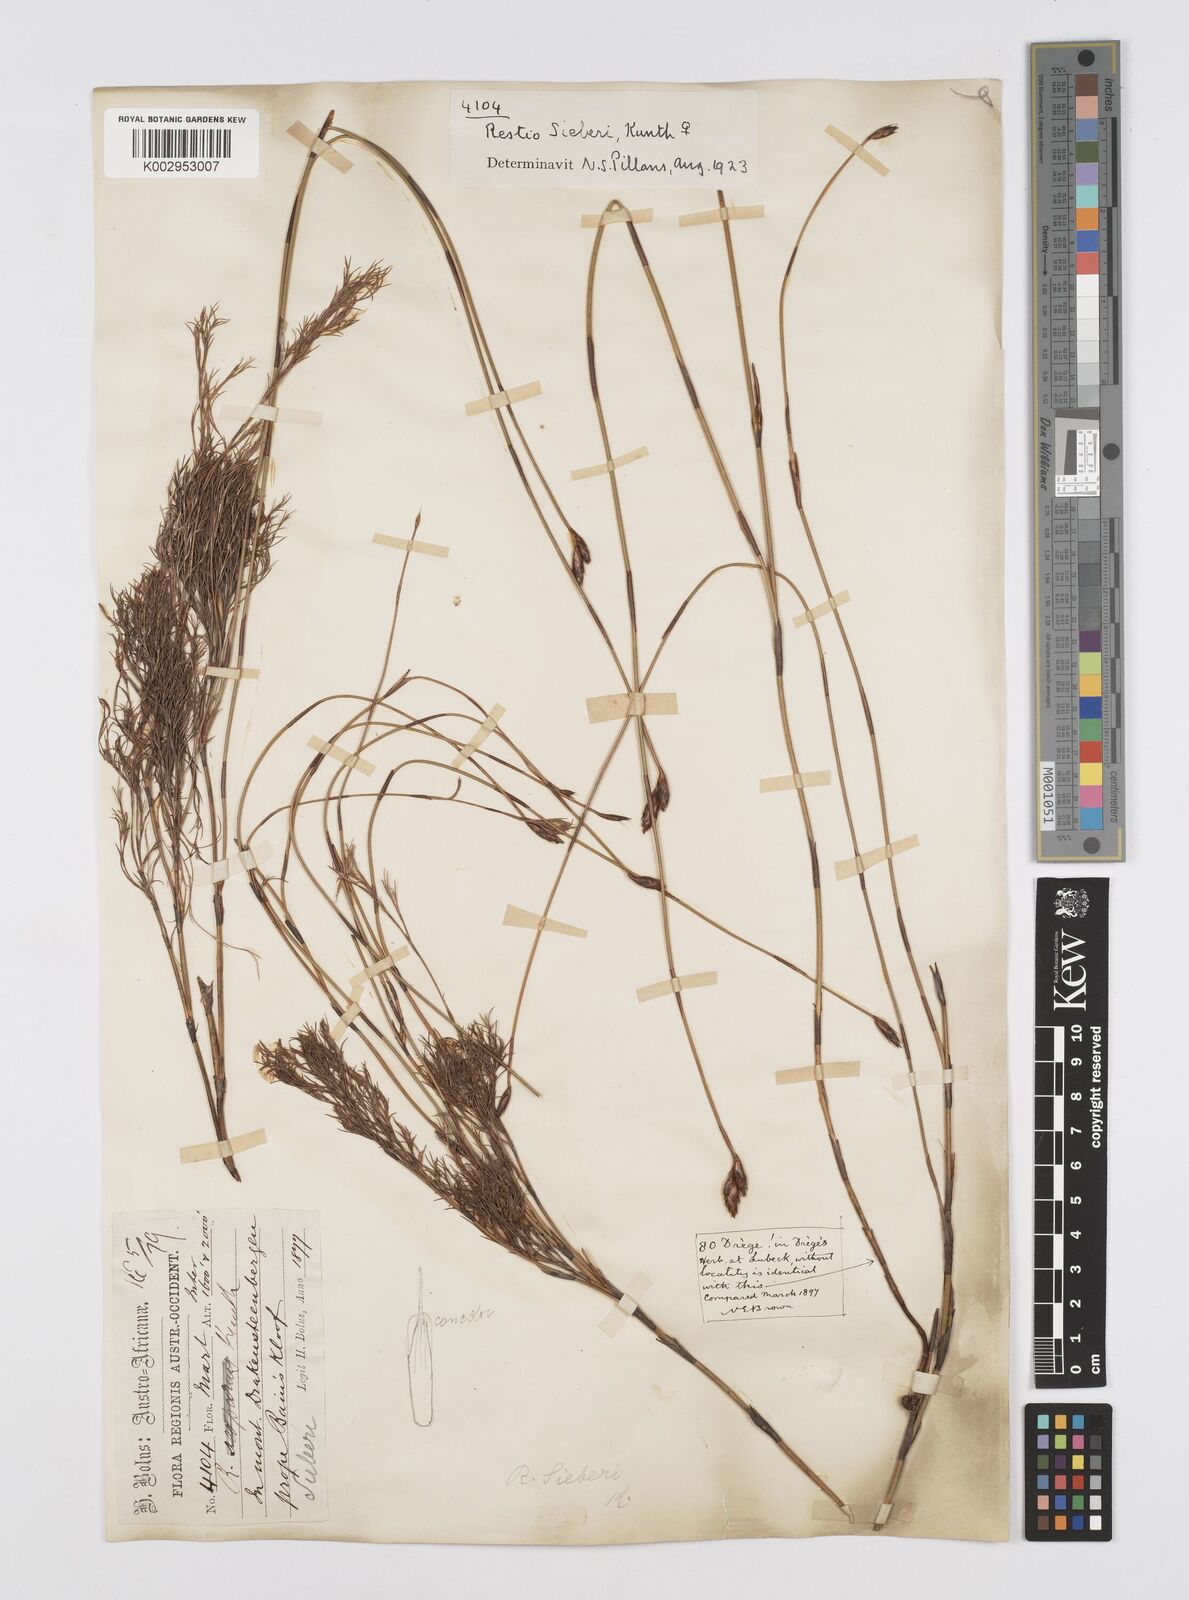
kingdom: Plantae
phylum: Tracheophyta
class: Liliopsida
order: Poales
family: Restionaceae
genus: Restio
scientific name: Restio sieberi
